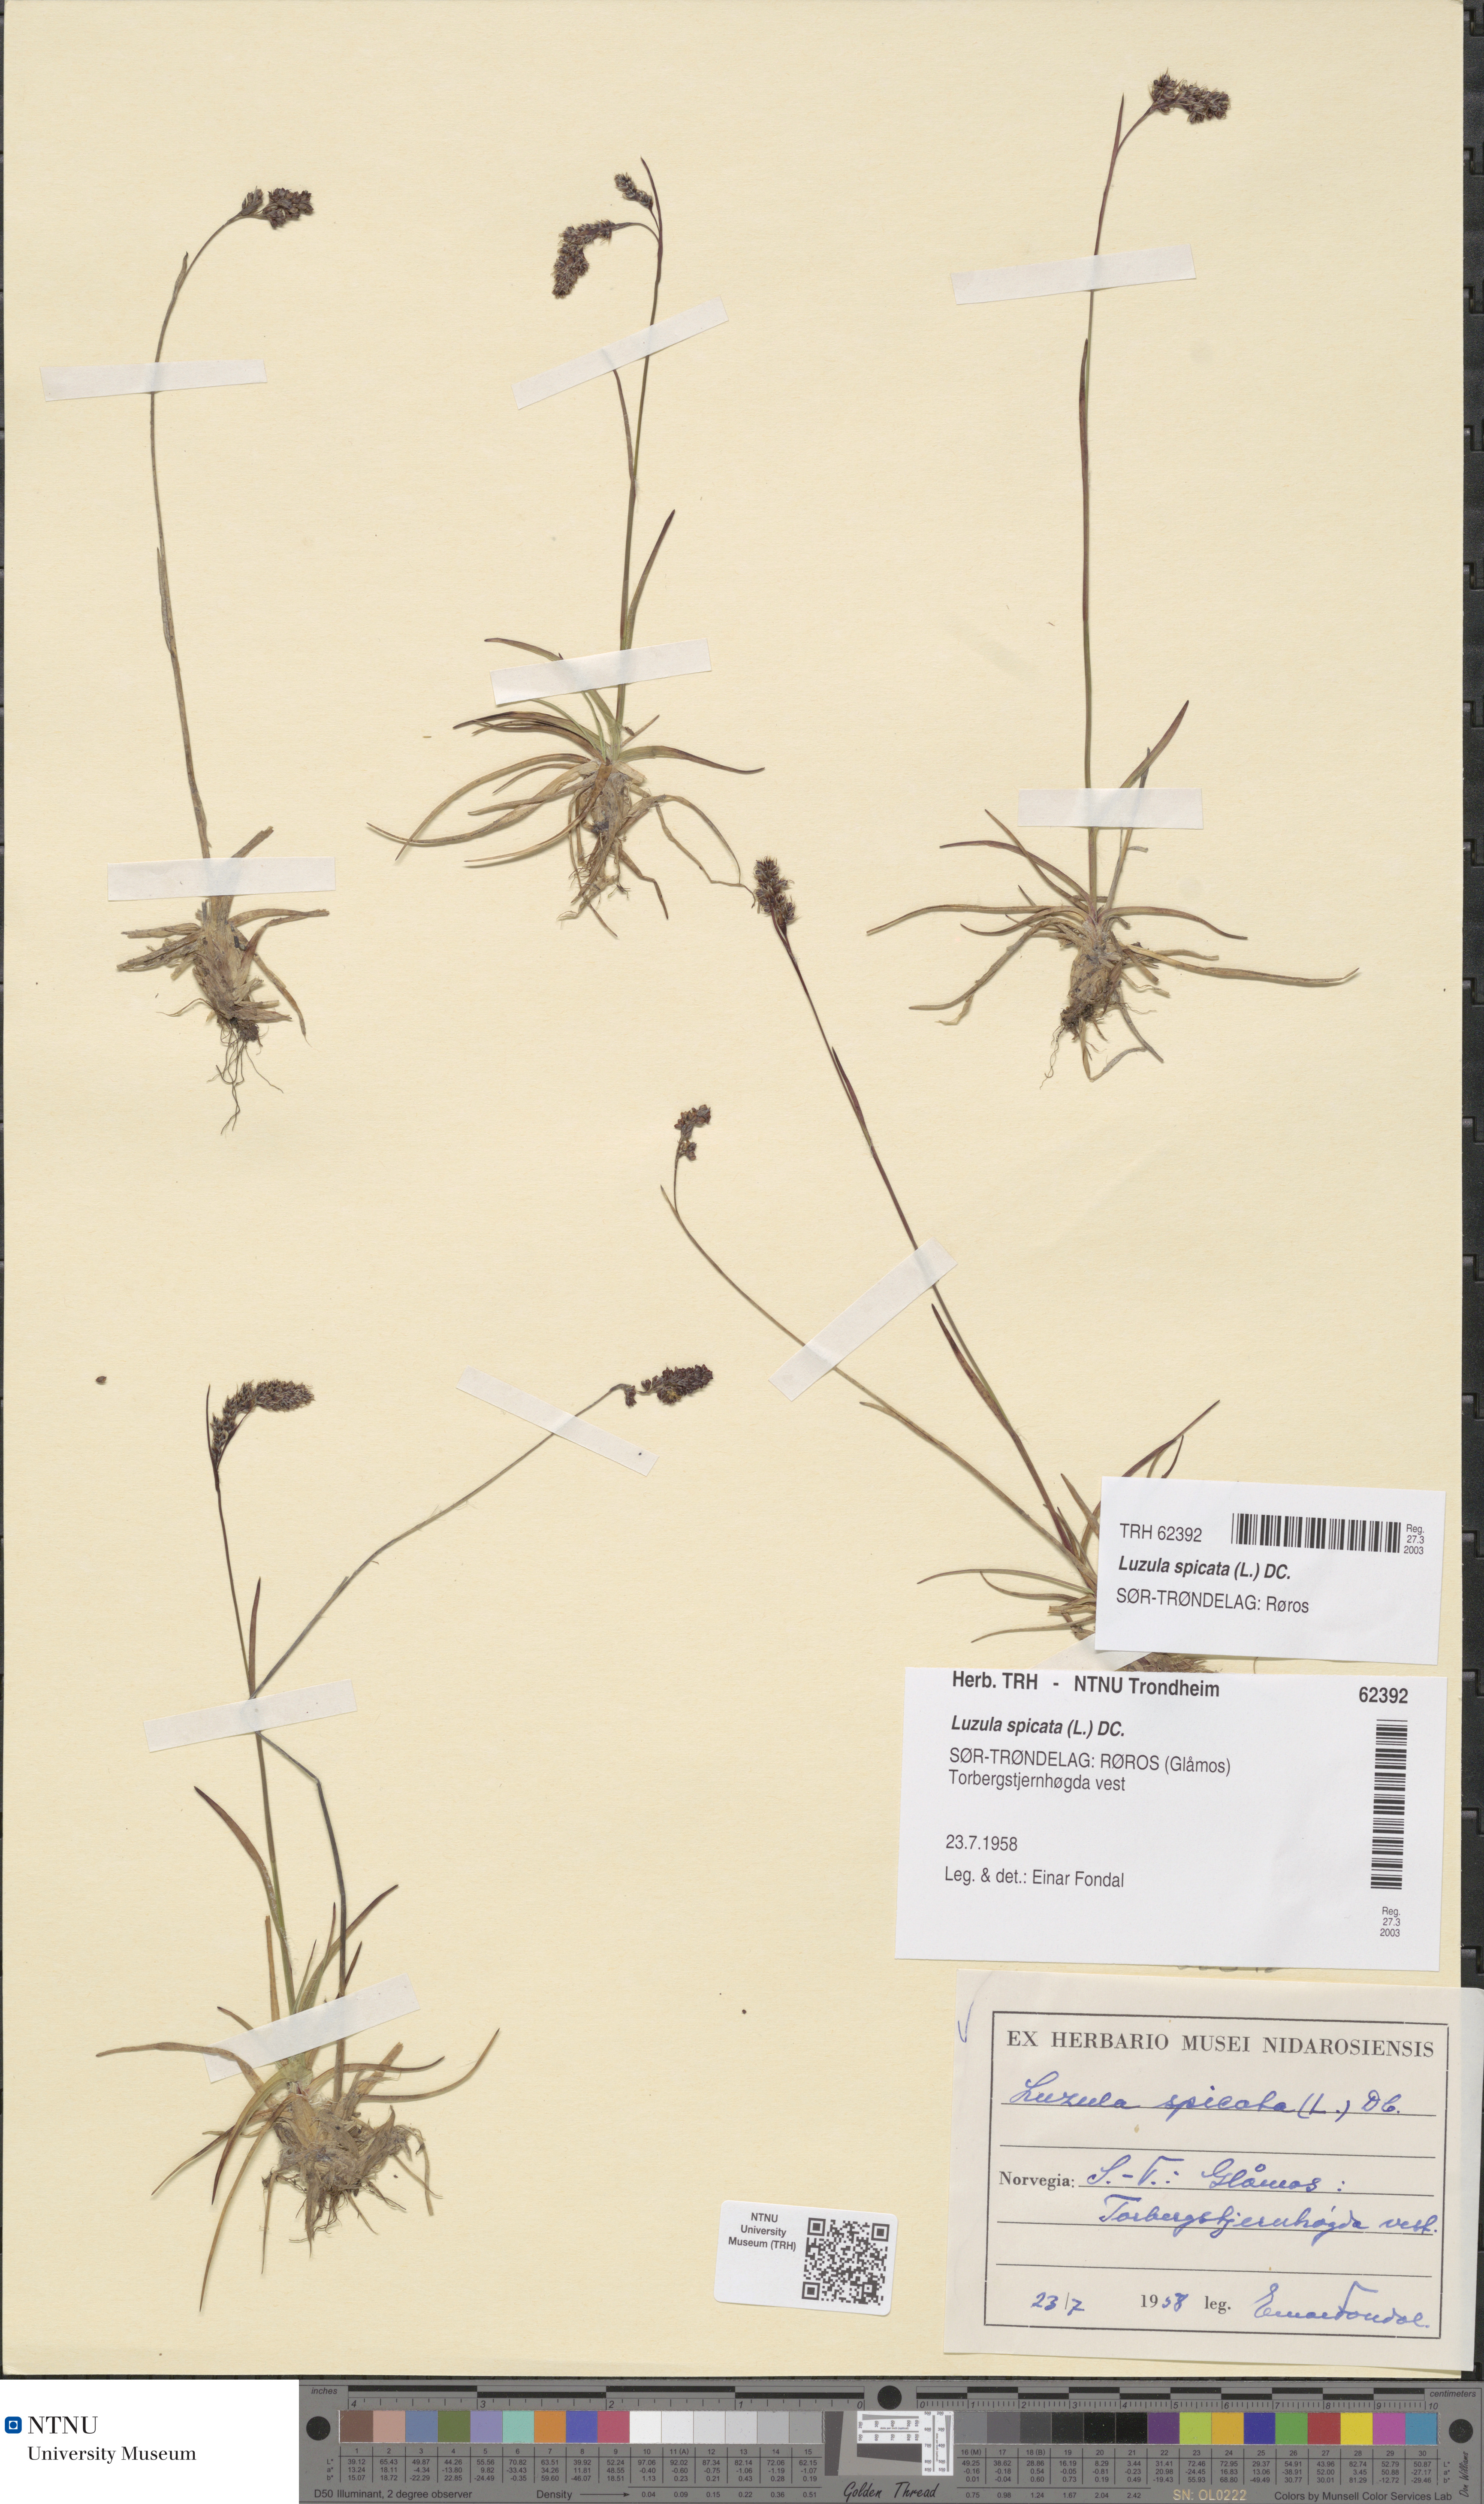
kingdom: Plantae
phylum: Tracheophyta
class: Liliopsida
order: Poales
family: Juncaceae
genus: Luzula
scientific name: Luzula spicata
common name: Spiked wood-rush
